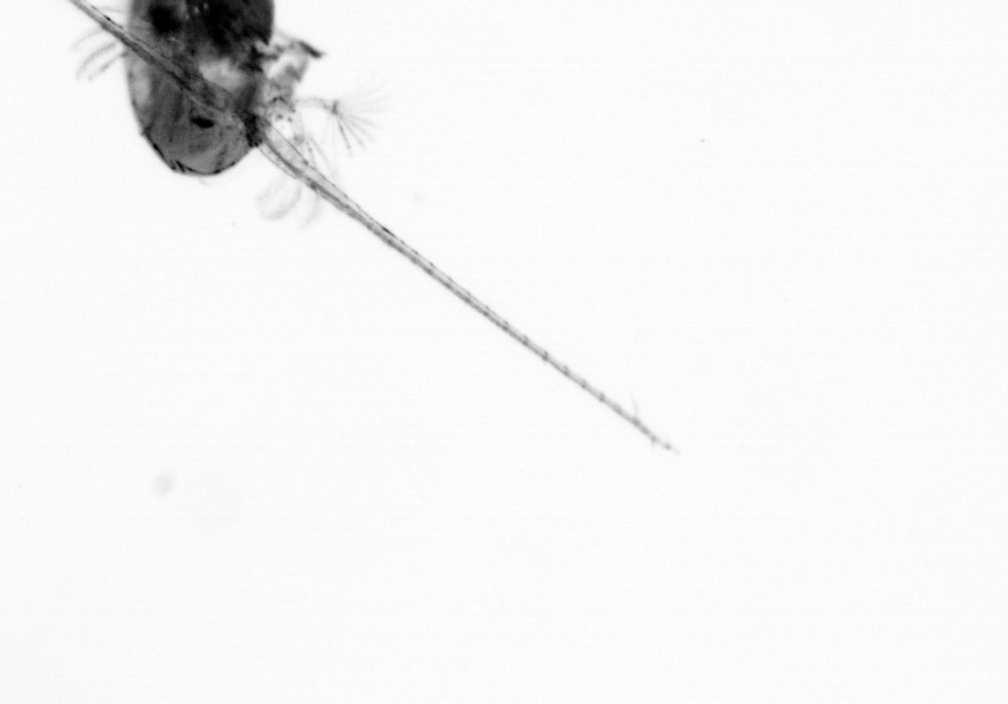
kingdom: Animalia
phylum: Arthropoda
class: Copepoda
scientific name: Copepoda
